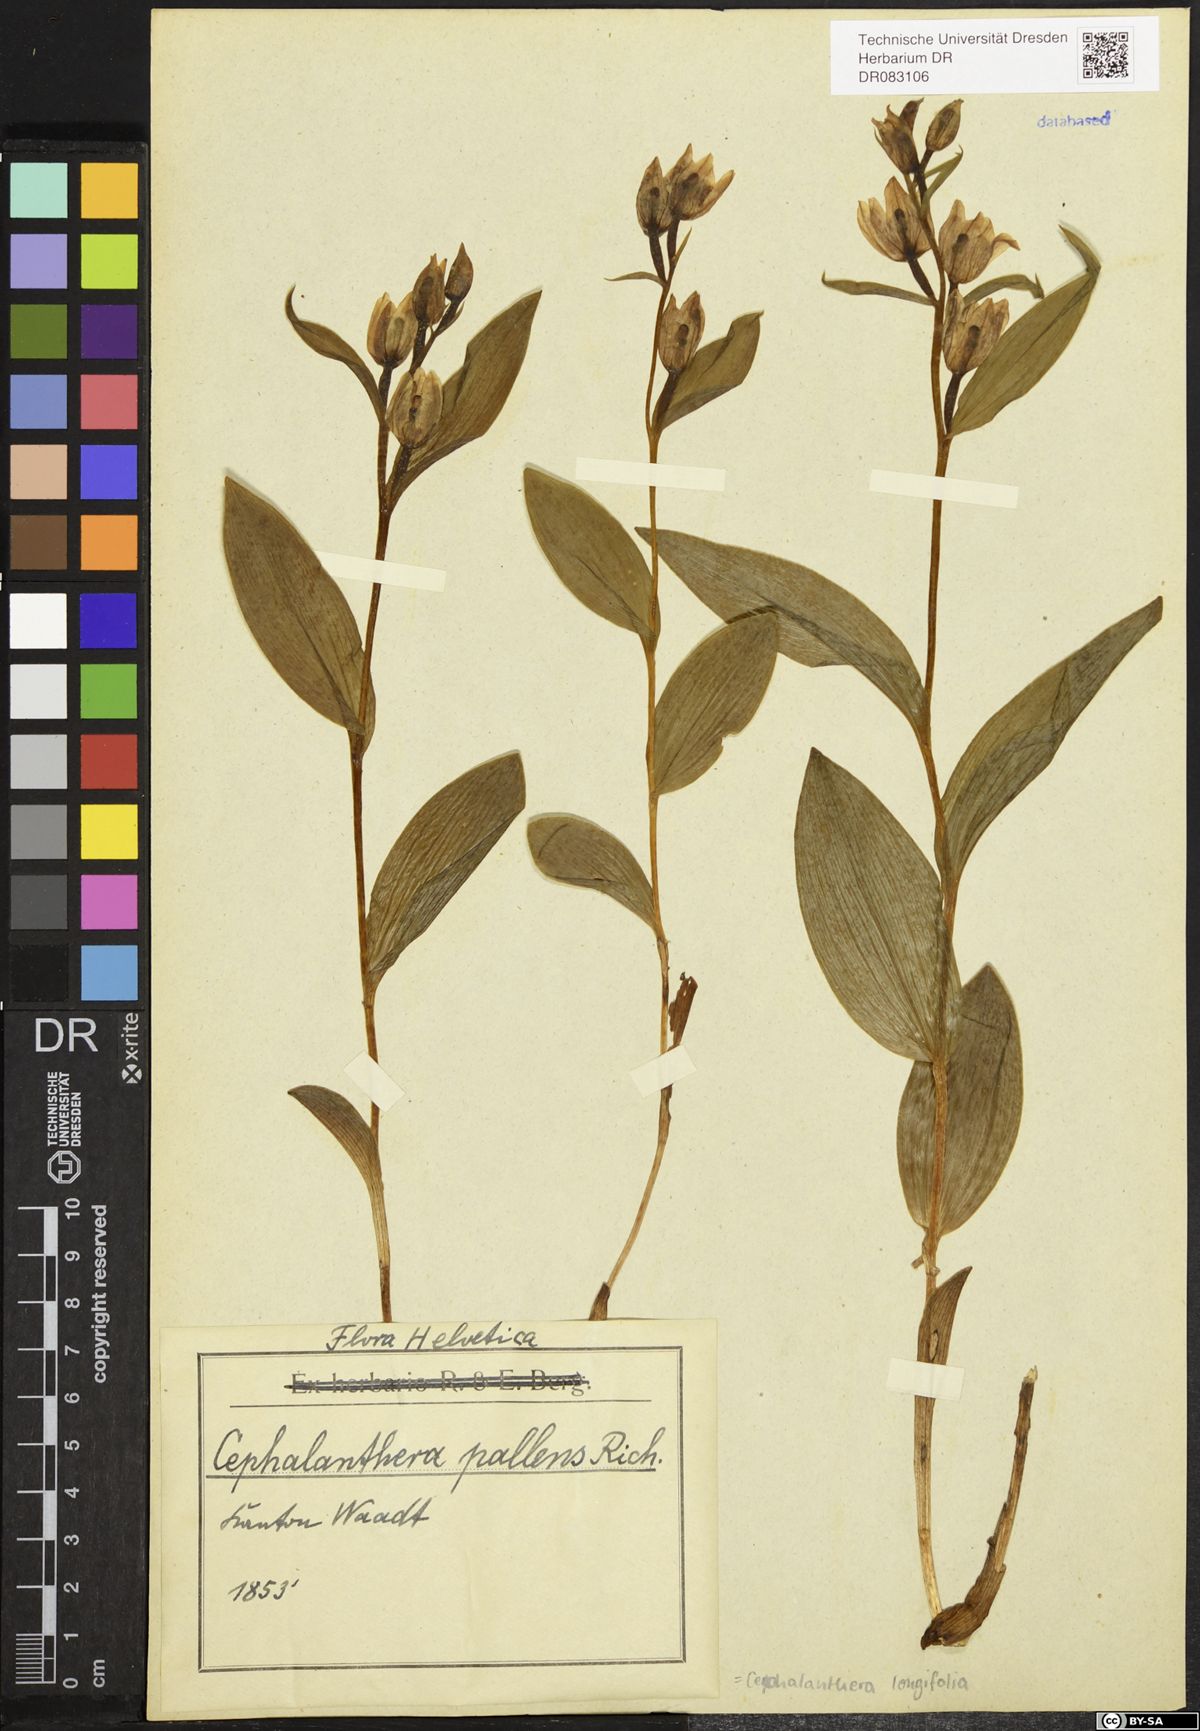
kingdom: Plantae
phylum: Tracheophyta
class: Liliopsida
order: Asparagales
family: Orchidaceae
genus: Cephalanthera
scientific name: Cephalanthera longifolia
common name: Narrow-leaved helleborine
